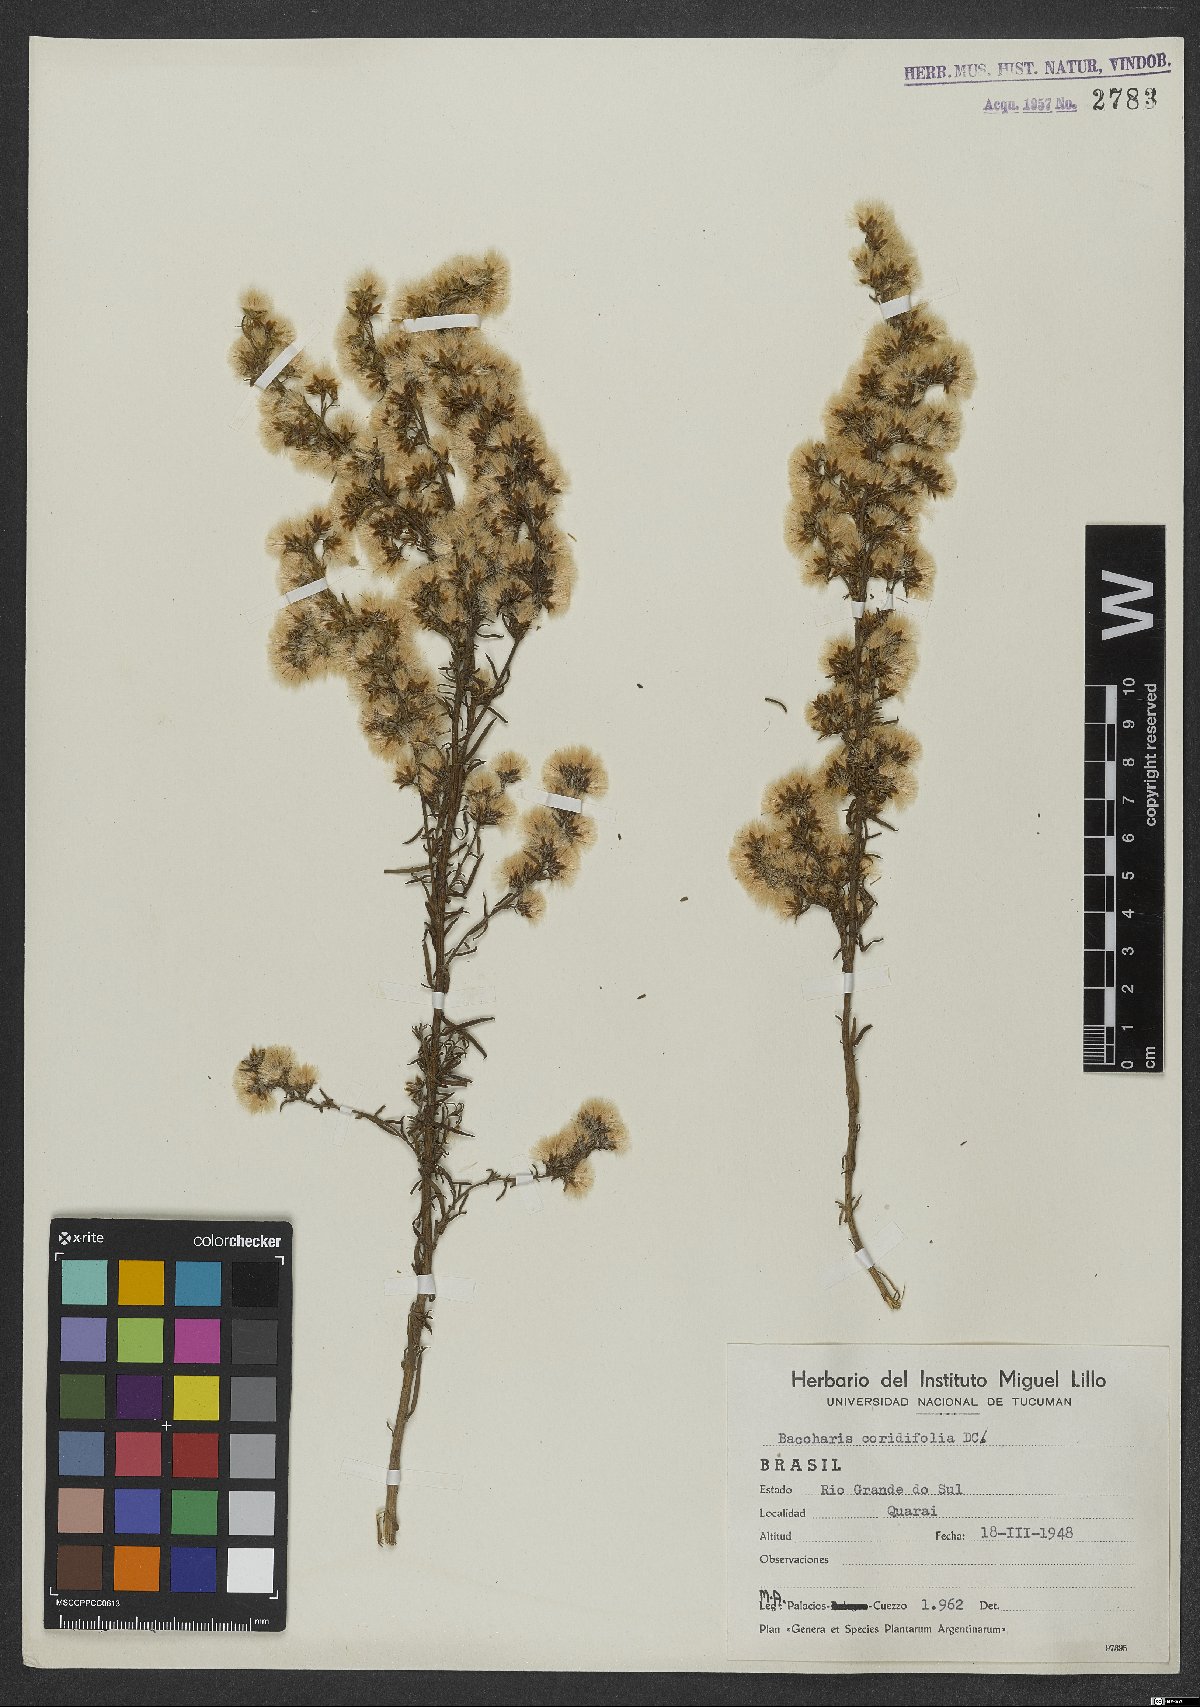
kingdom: Plantae
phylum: Tracheophyta
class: Magnoliopsida
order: Asterales
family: Asteraceae
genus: Baccharis
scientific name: Baccharis coridifolia
